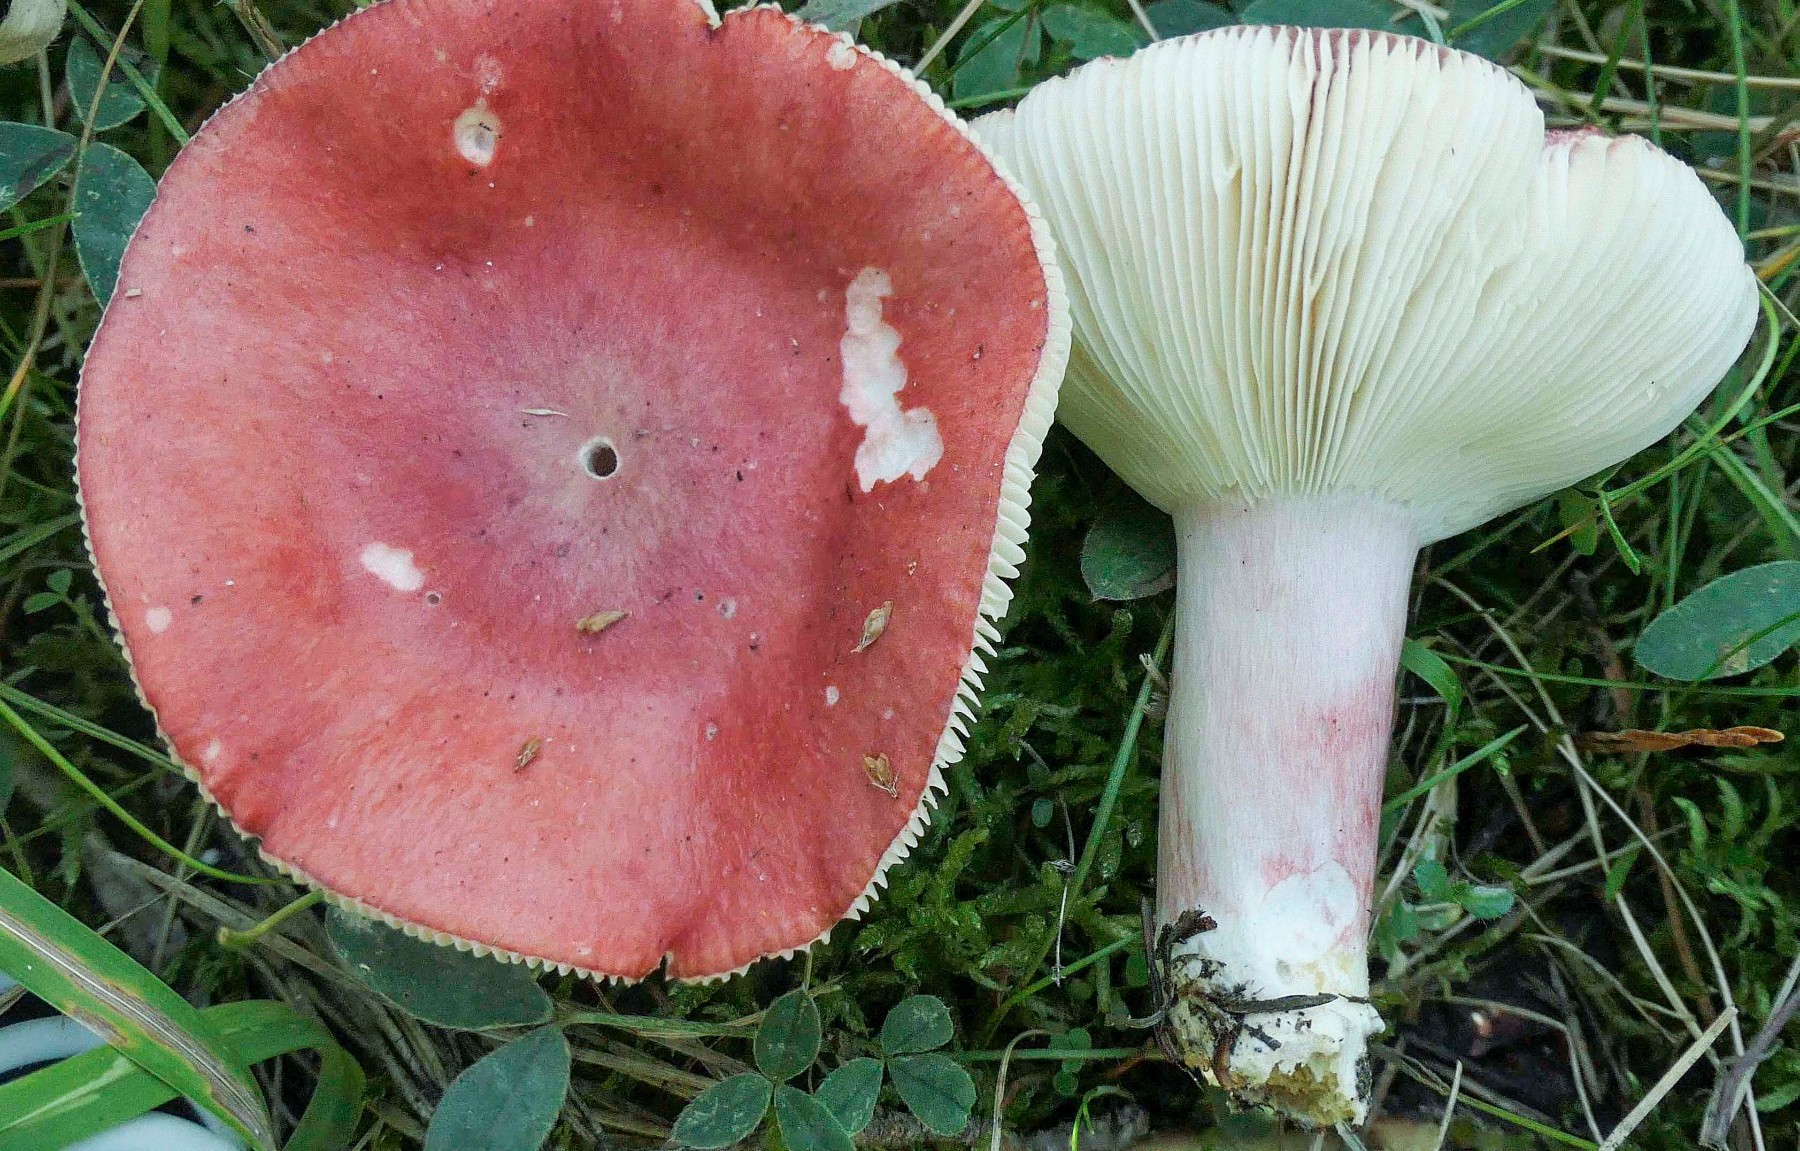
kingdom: Fungi
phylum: Basidiomycota
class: Agaricomycetes
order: Russulales
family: Russulaceae
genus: Russula
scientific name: Russula sanguinea
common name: blodrød skørhat
